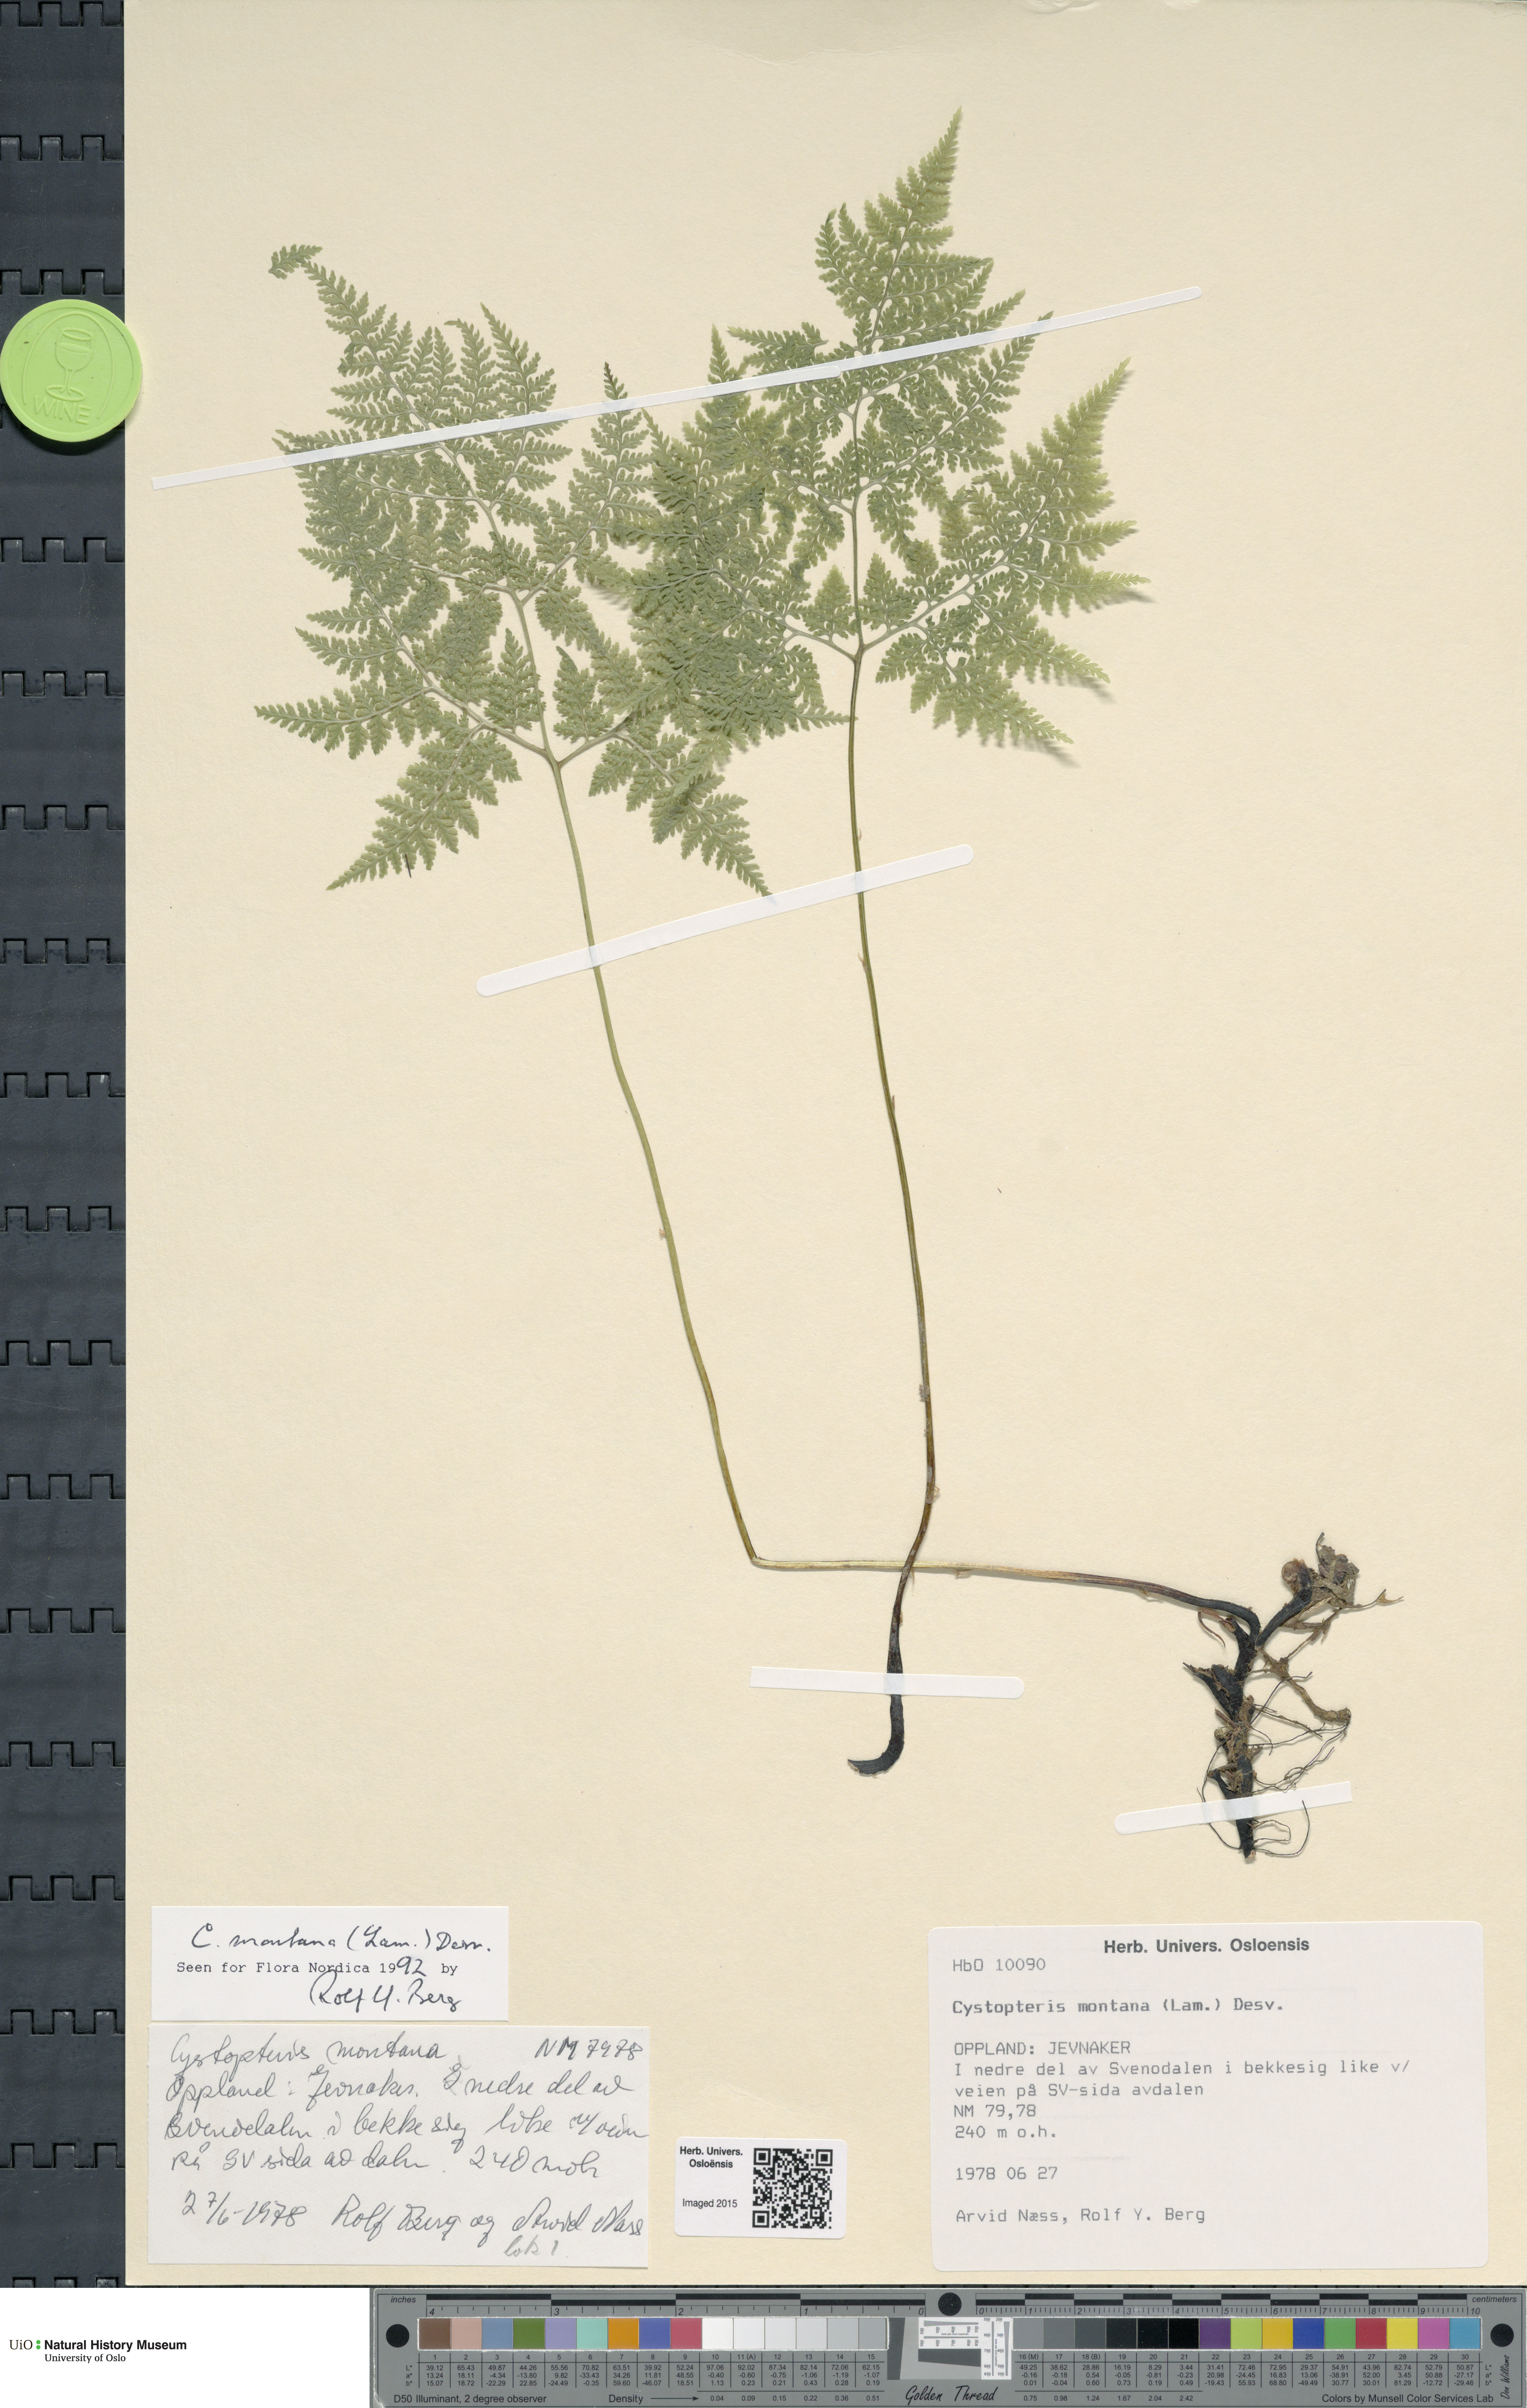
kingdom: Plantae
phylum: Tracheophyta
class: Polypodiopsida
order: Polypodiales
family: Cystopteridaceae
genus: Cystopteris
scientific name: Cystopteris montana
